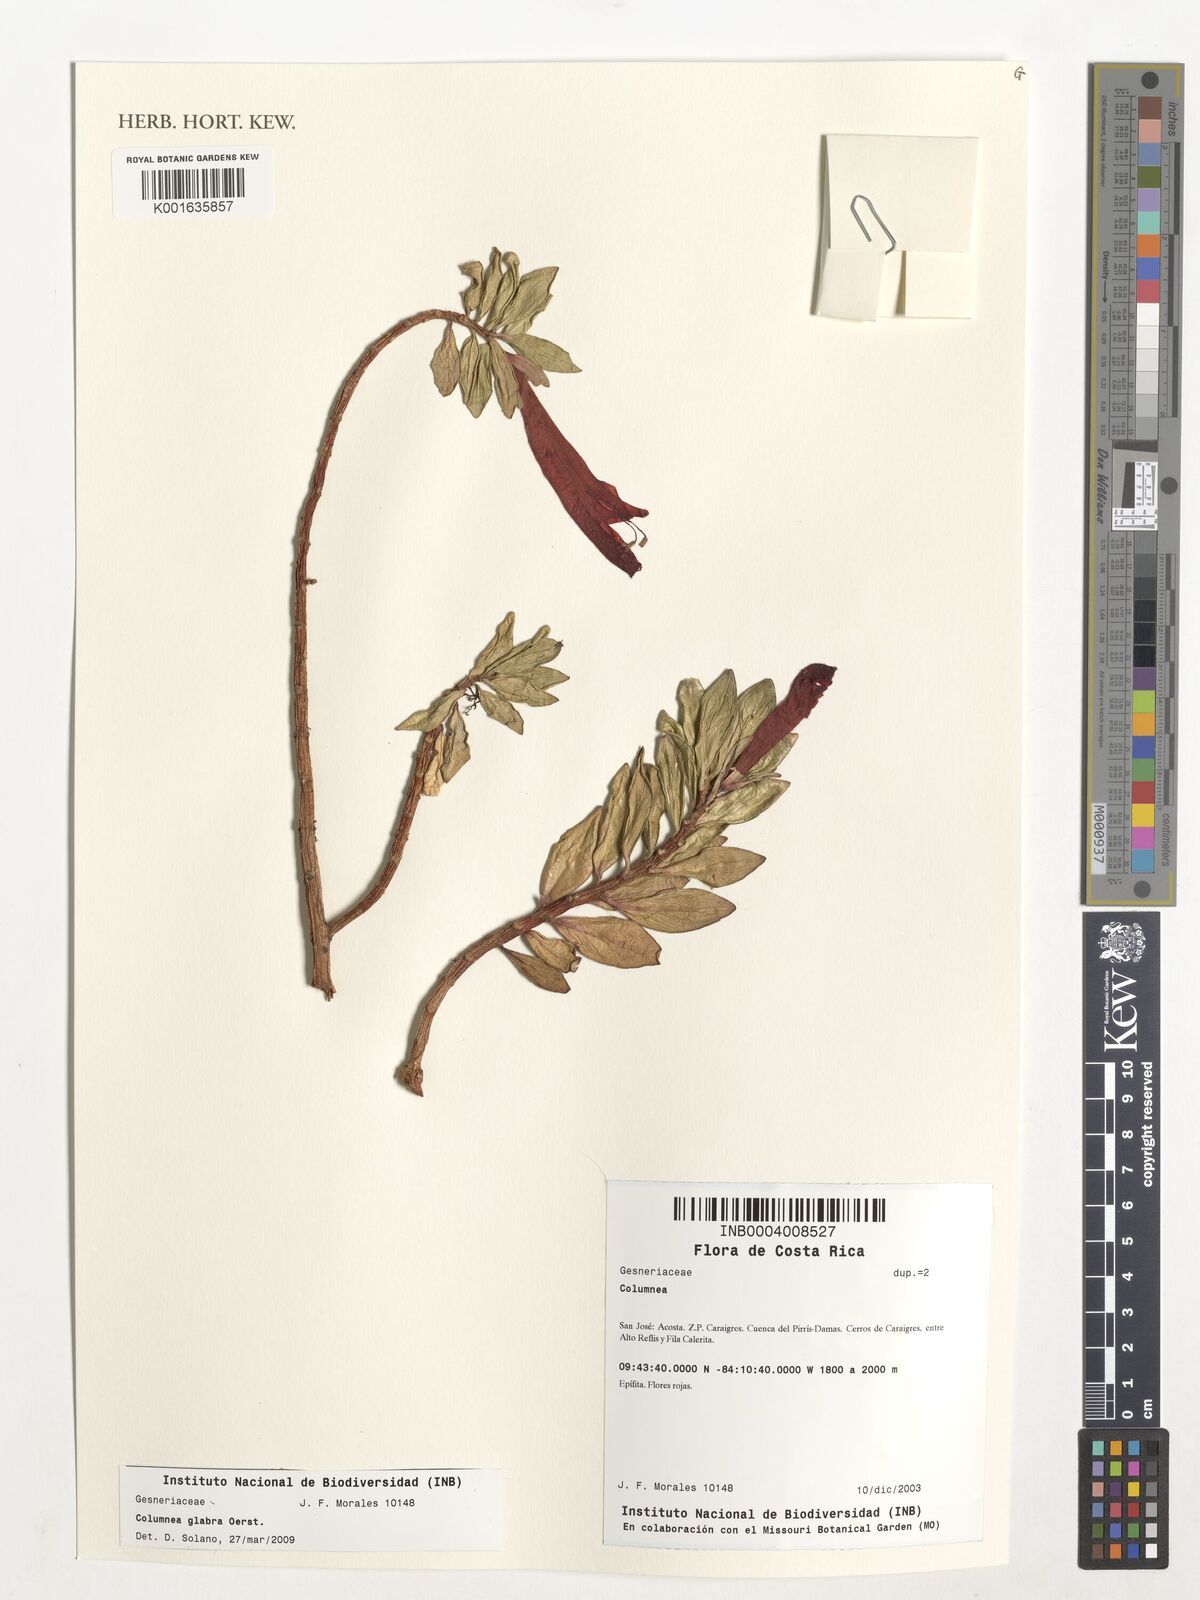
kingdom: Plantae
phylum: Tracheophyta
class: Magnoliopsida
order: Lamiales
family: Gesneriaceae
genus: Columnea
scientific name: Columnea glabra
